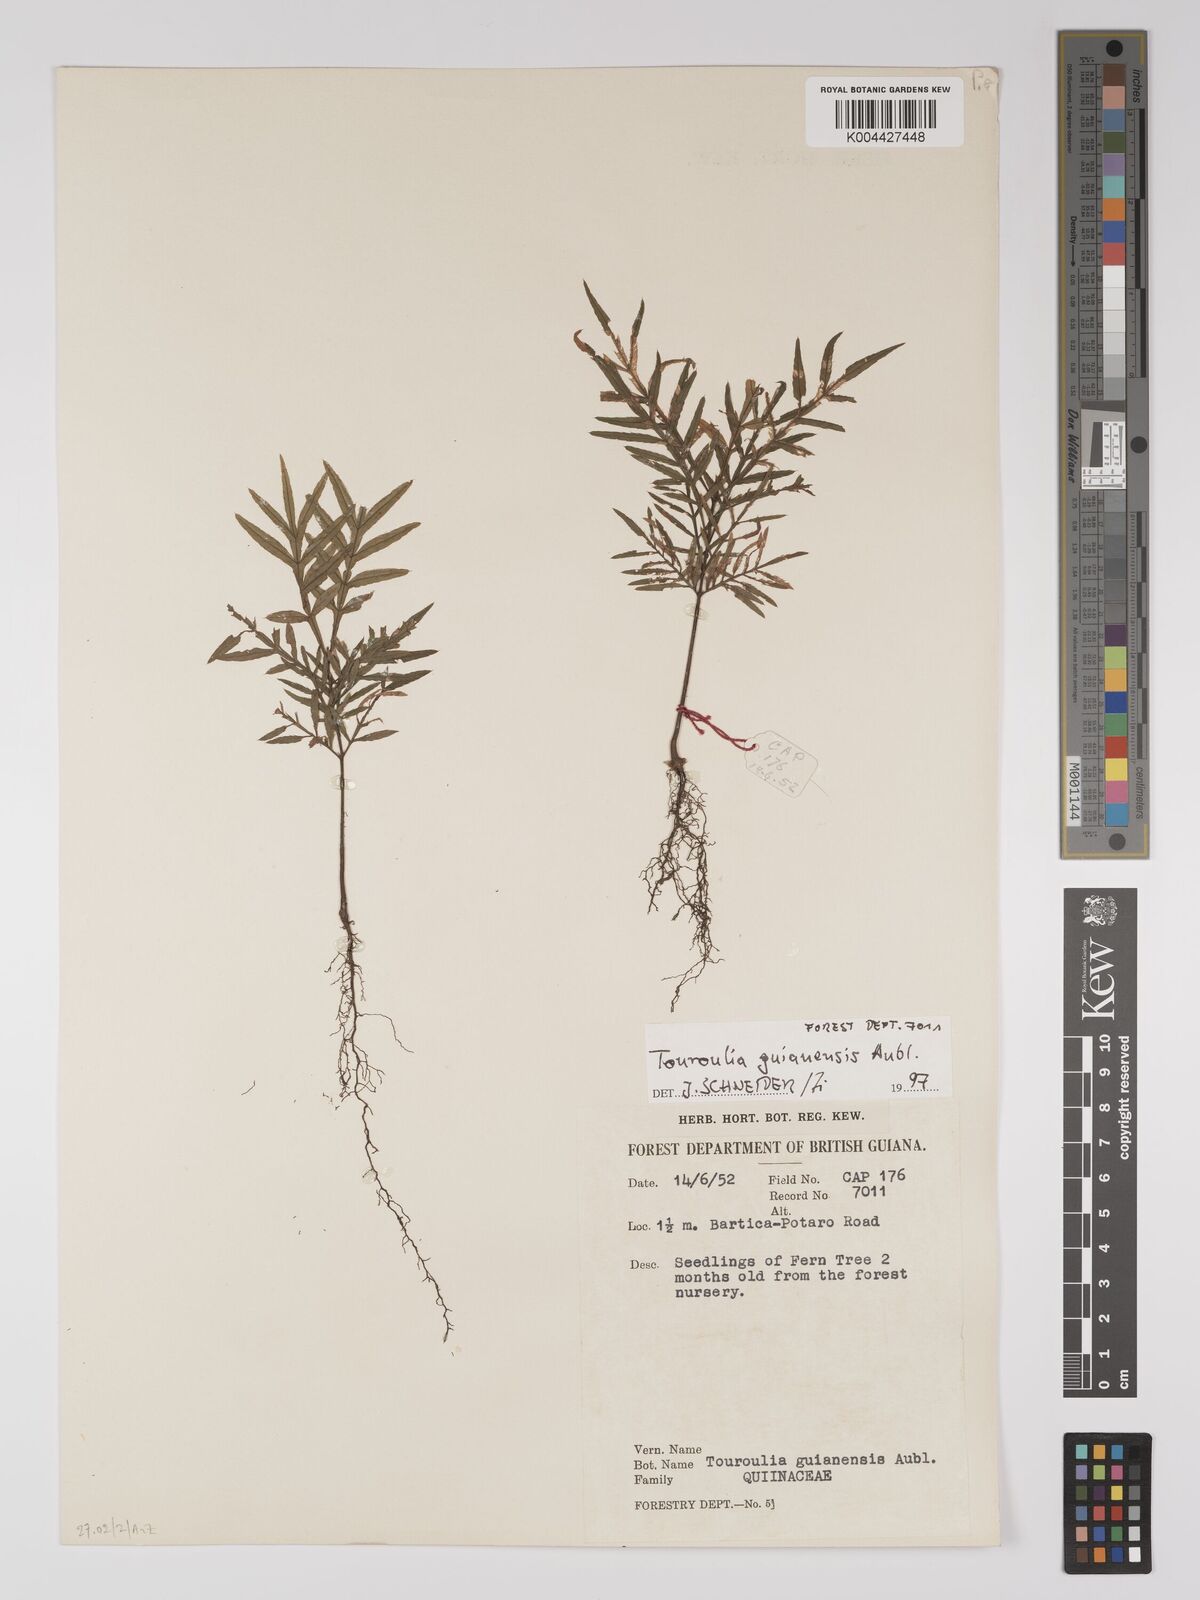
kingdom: Plantae
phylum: Tracheophyta
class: Magnoliopsida
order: Malpighiales
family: Quiinaceae
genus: Touroulia
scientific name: Touroulia guianensis
